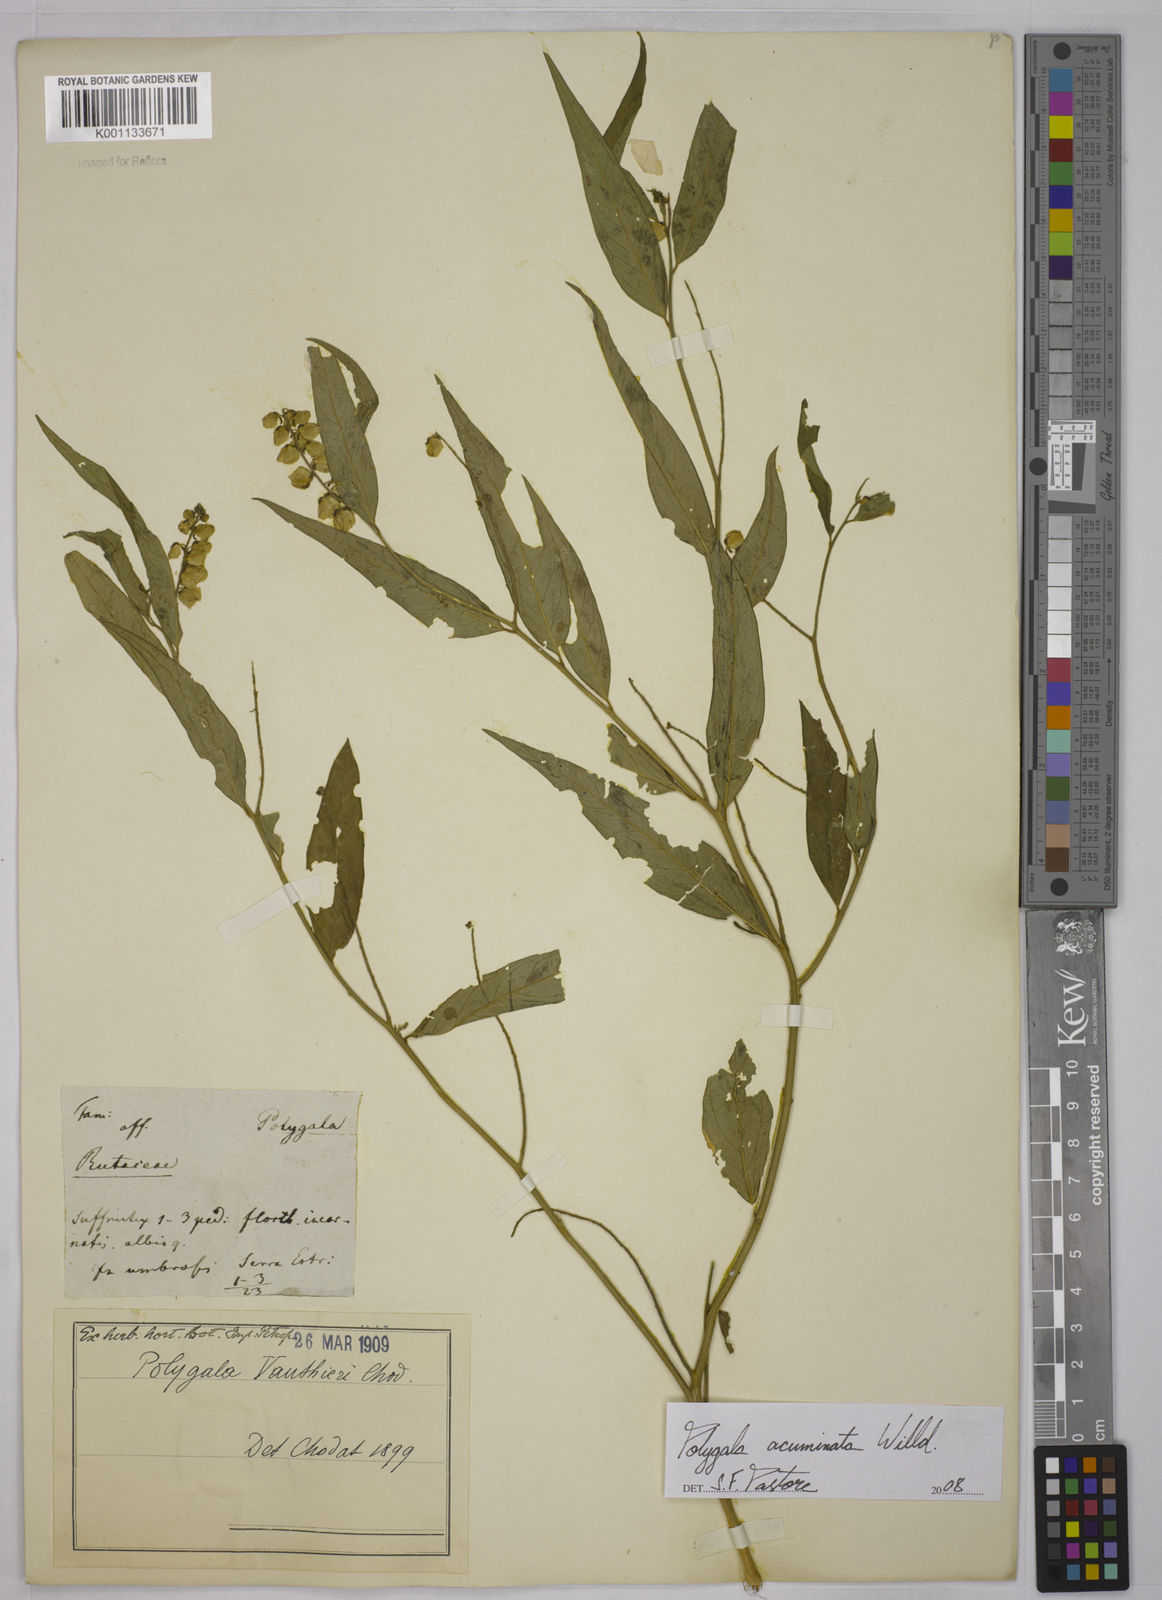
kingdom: Plantae
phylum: Tracheophyta
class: Magnoliopsida
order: Fabales
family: Polygalaceae
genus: Asemeia
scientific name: Asemeia acuminata
